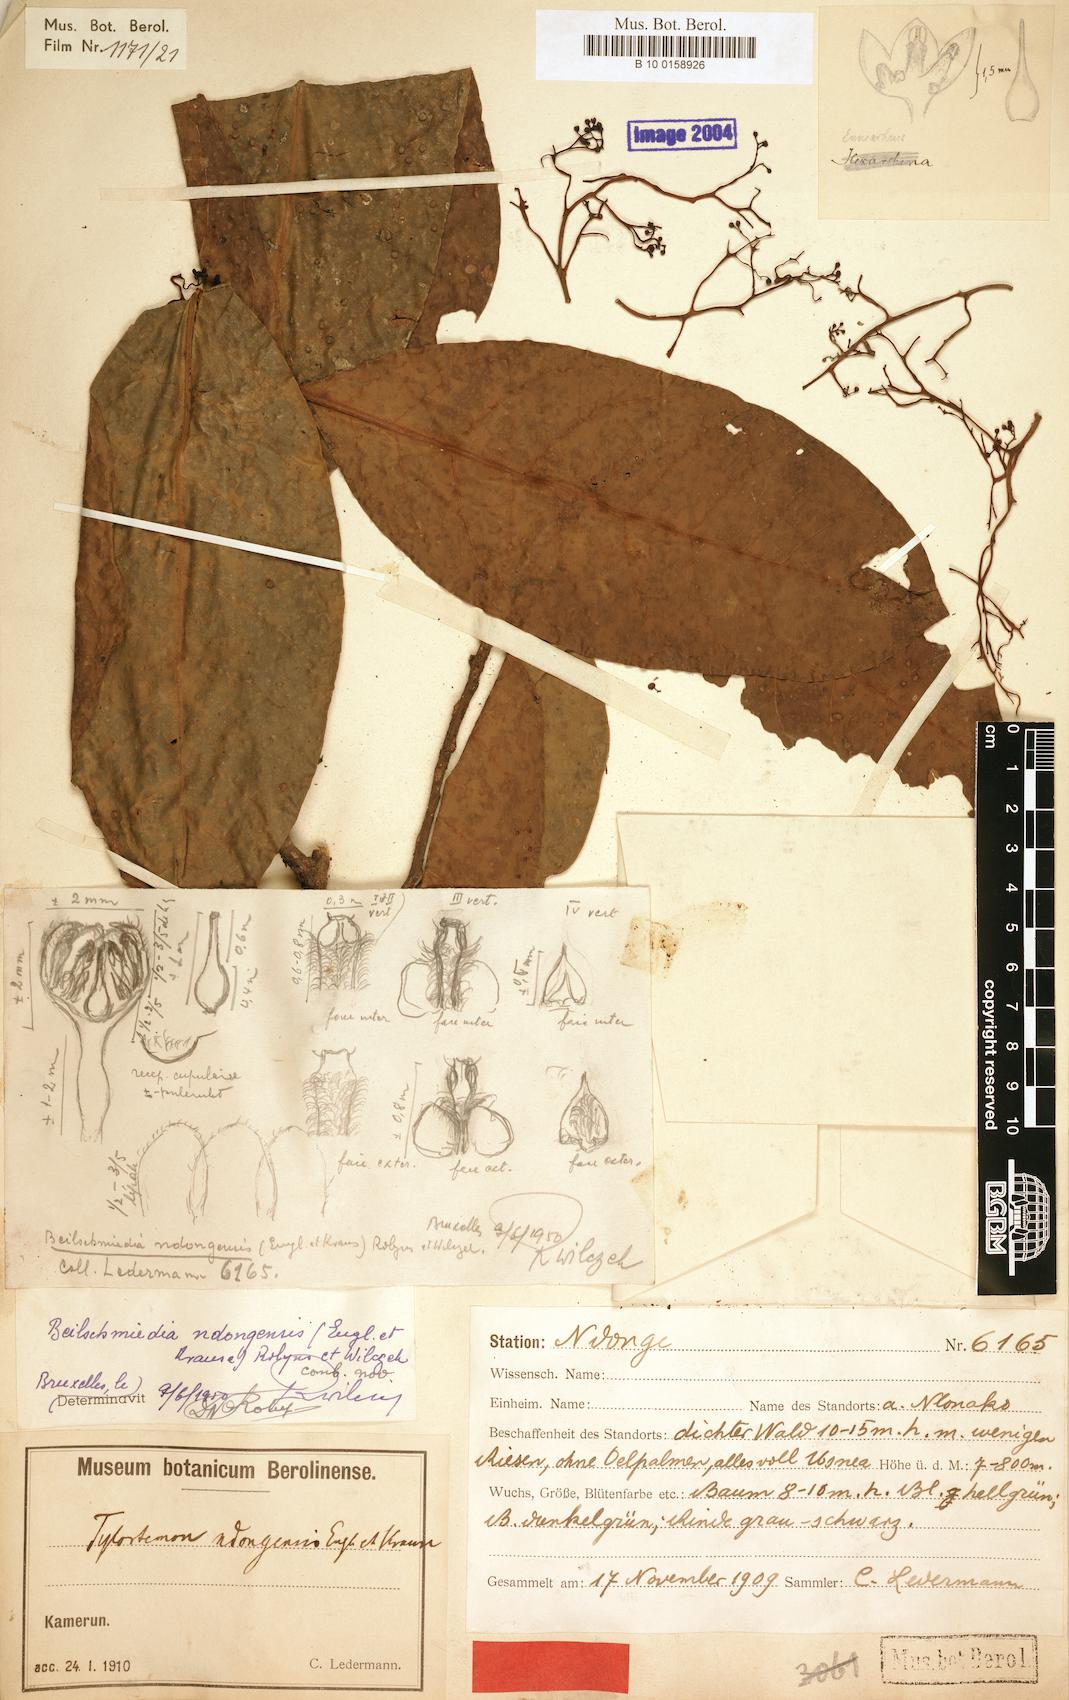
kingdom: Plantae
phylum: Tracheophyta
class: Magnoliopsida
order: Laurales
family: Lauraceae
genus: Beilschmiedia
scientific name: Beilschmiedia ndongensis
